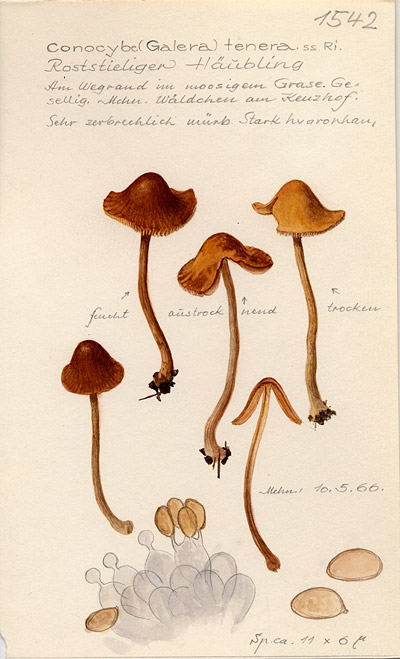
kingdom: Fungi
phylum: Basidiomycota
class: Agaricomycetes
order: Agaricales
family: Bolbitiaceae
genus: Conocybe
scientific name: Conocybe tenera
